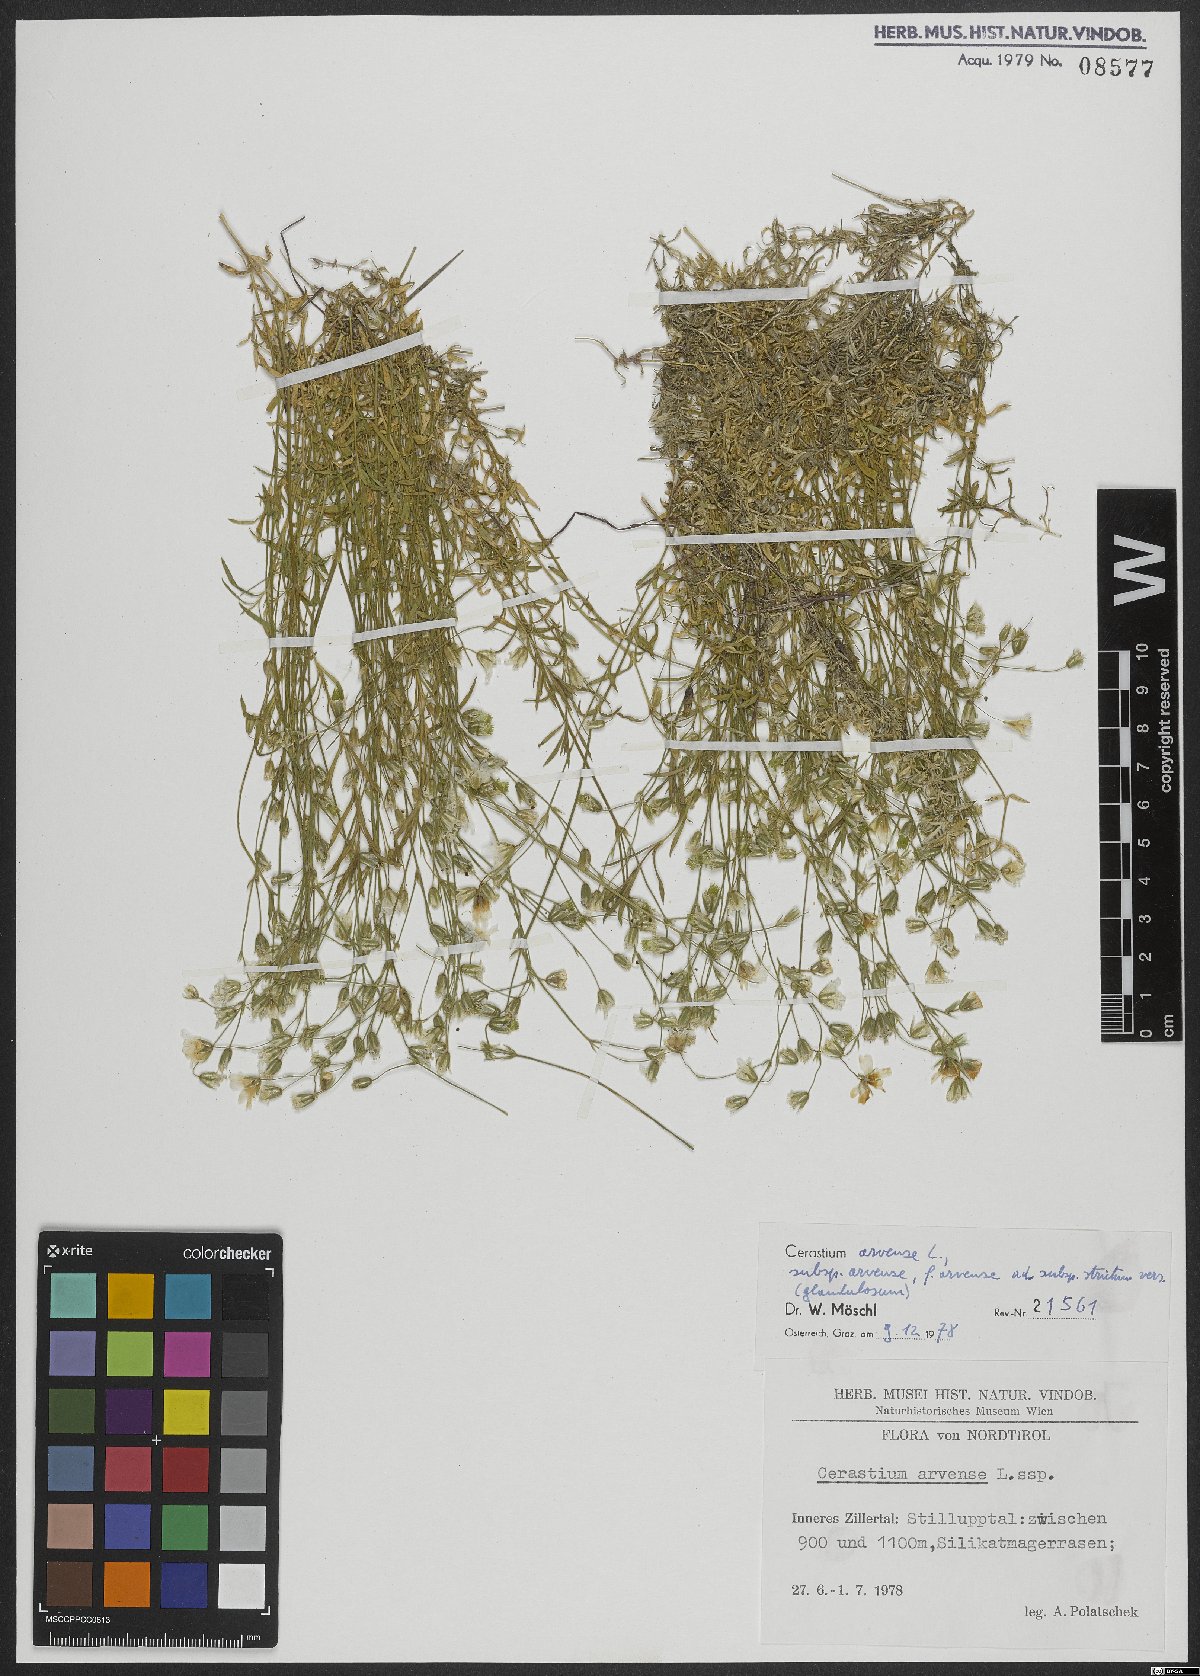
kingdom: Plantae
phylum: Tracheophyta
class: Magnoliopsida
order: Caryophyllales
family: Caryophyllaceae
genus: Cerastium
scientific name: Cerastium arvense
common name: Field mouse-ear
